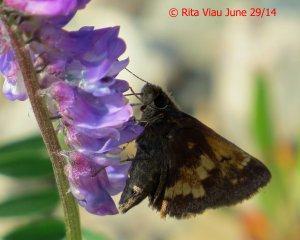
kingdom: Animalia
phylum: Arthropoda
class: Insecta
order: Lepidoptera
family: Hesperiidae
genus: Lon
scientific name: Lon hobomok
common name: Hobomok Skipper
